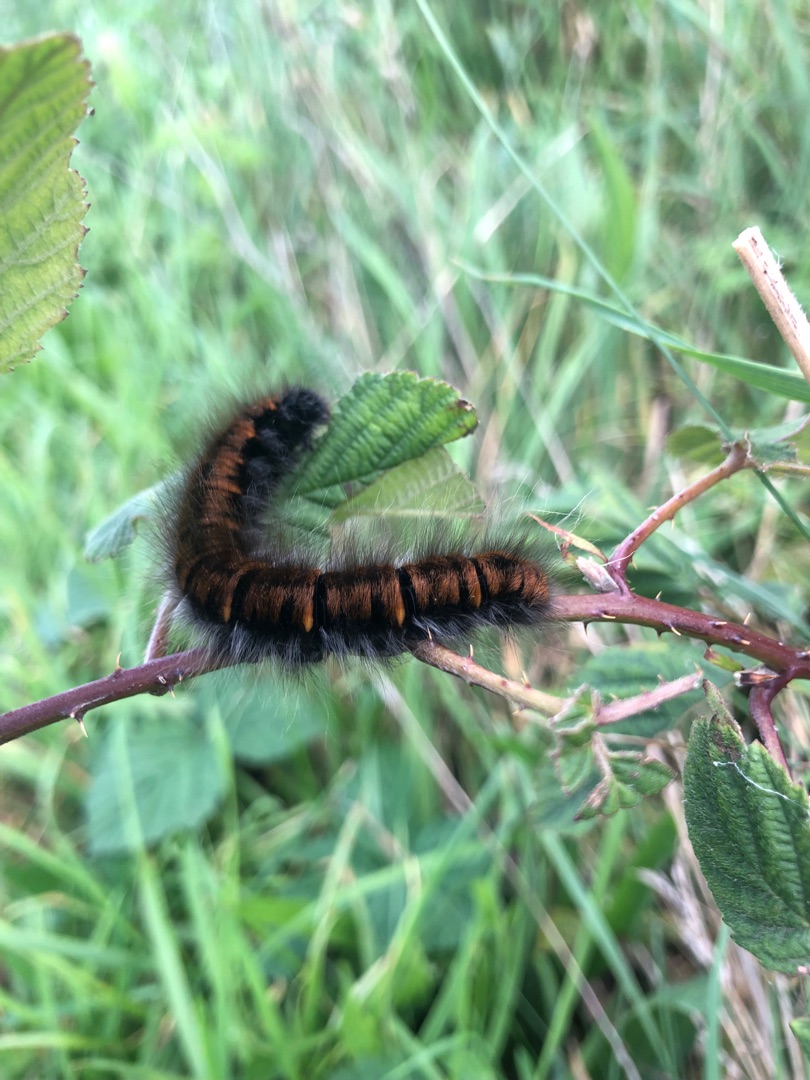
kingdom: Animalia
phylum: Arthropoda
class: Insecta
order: Lepidoptera
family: Lasiocampidae
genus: Macrothylacia
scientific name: Macrothylacia rubi
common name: Brombærspinder
